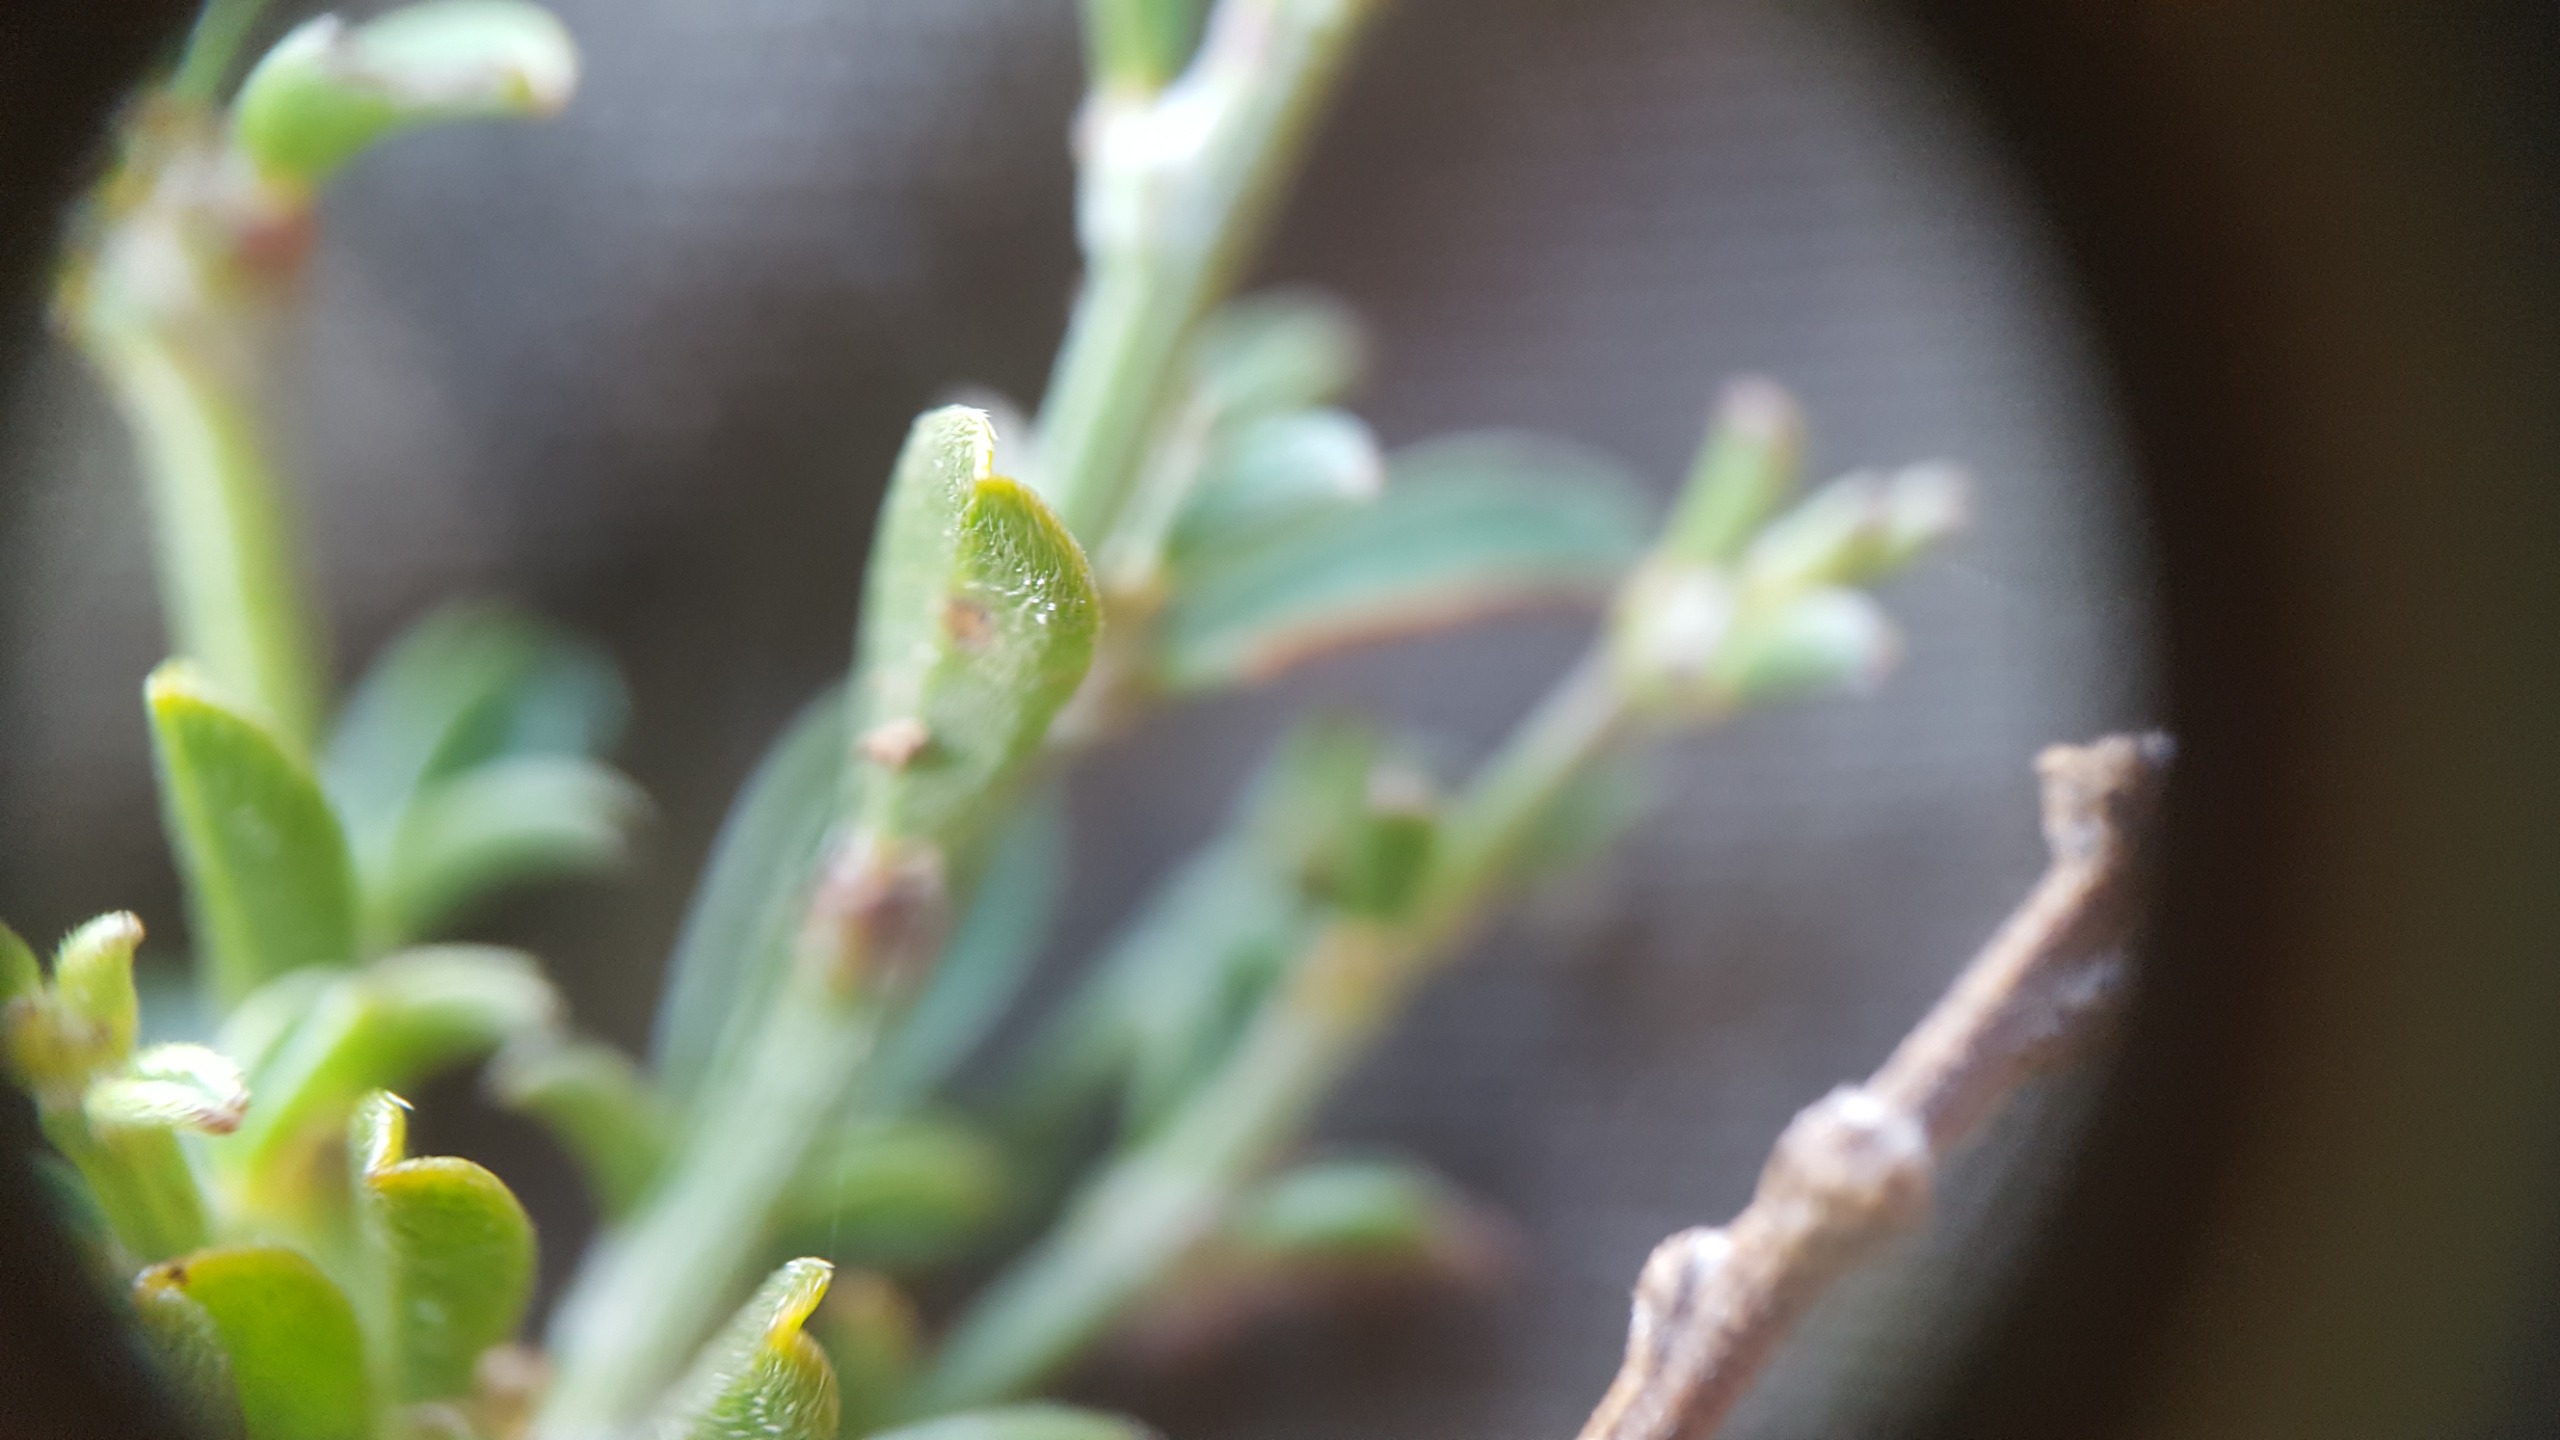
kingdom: Plantae
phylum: Tracheophyta
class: Magnoliopsida
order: Fabales
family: Fabaceae
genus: Genista
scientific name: Genista pilosa
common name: Håret visse
